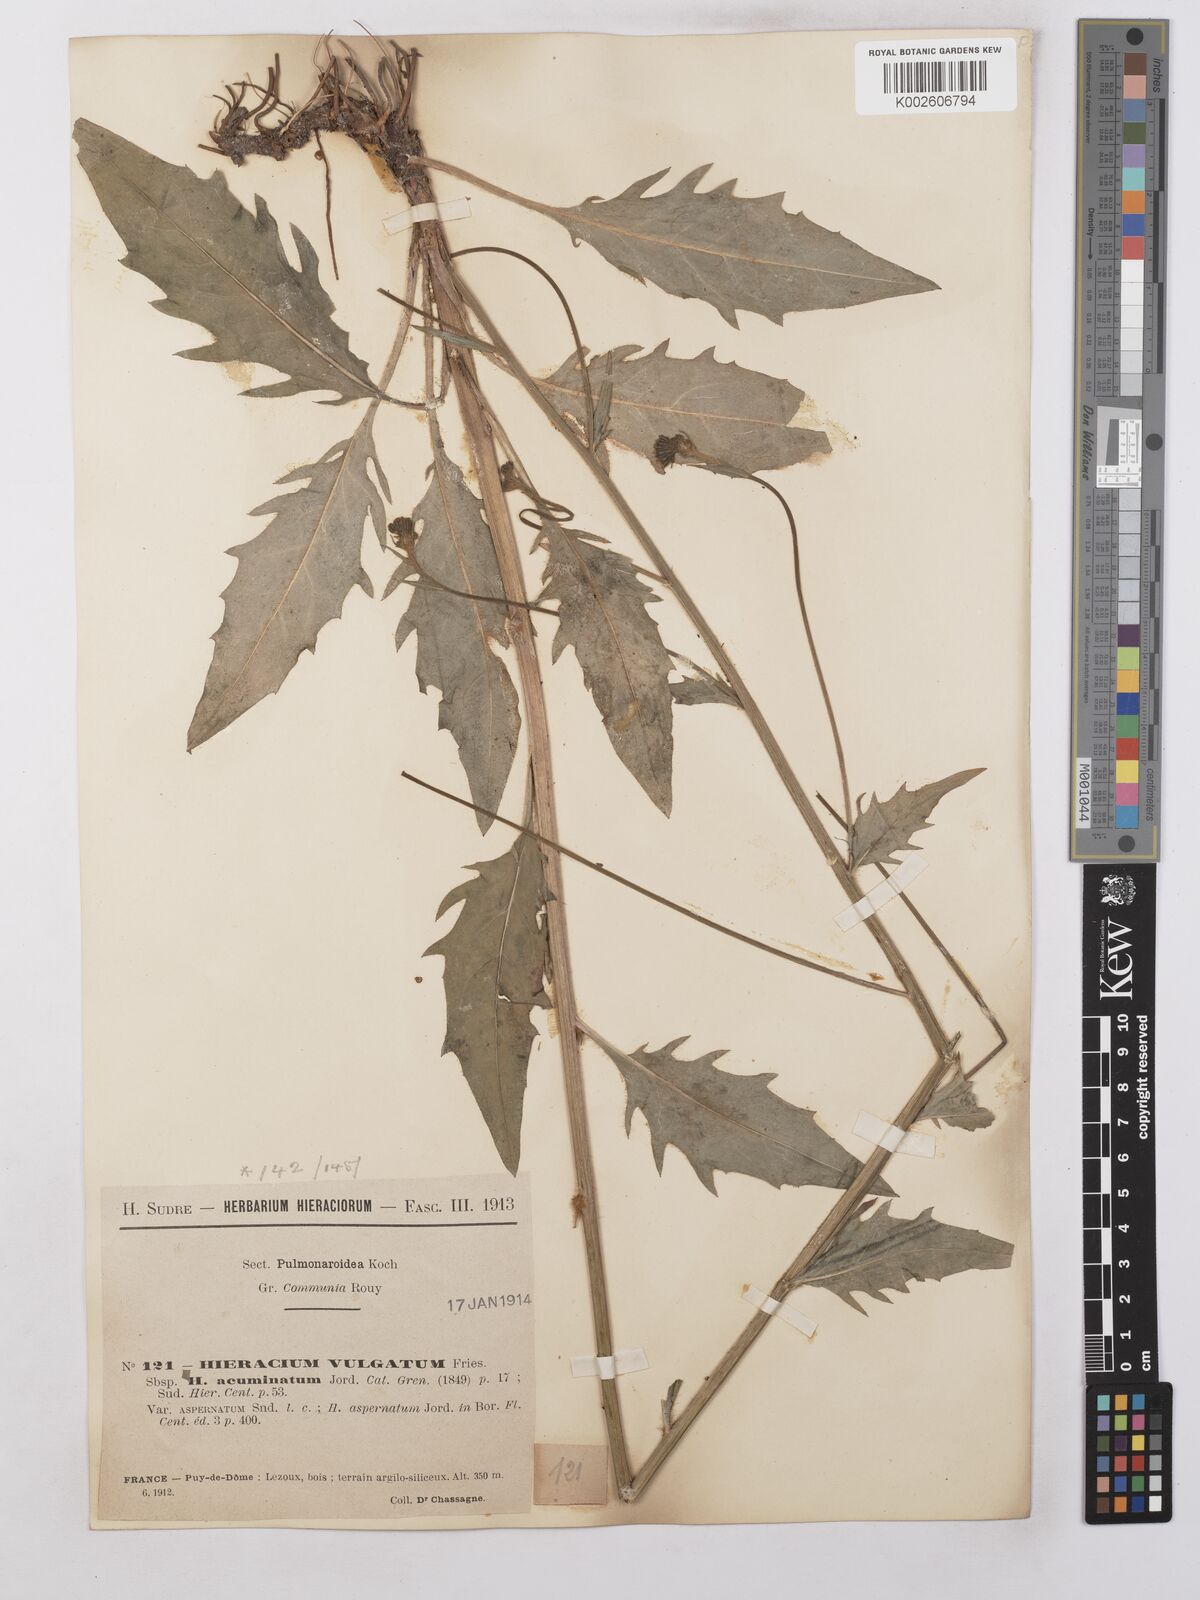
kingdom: Plantae
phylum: Tracheophyta
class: Magnoliopsida
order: Asterales
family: Asteraceae
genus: Hieracium
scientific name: Hieracium lachenalii
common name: Common hawkweed
